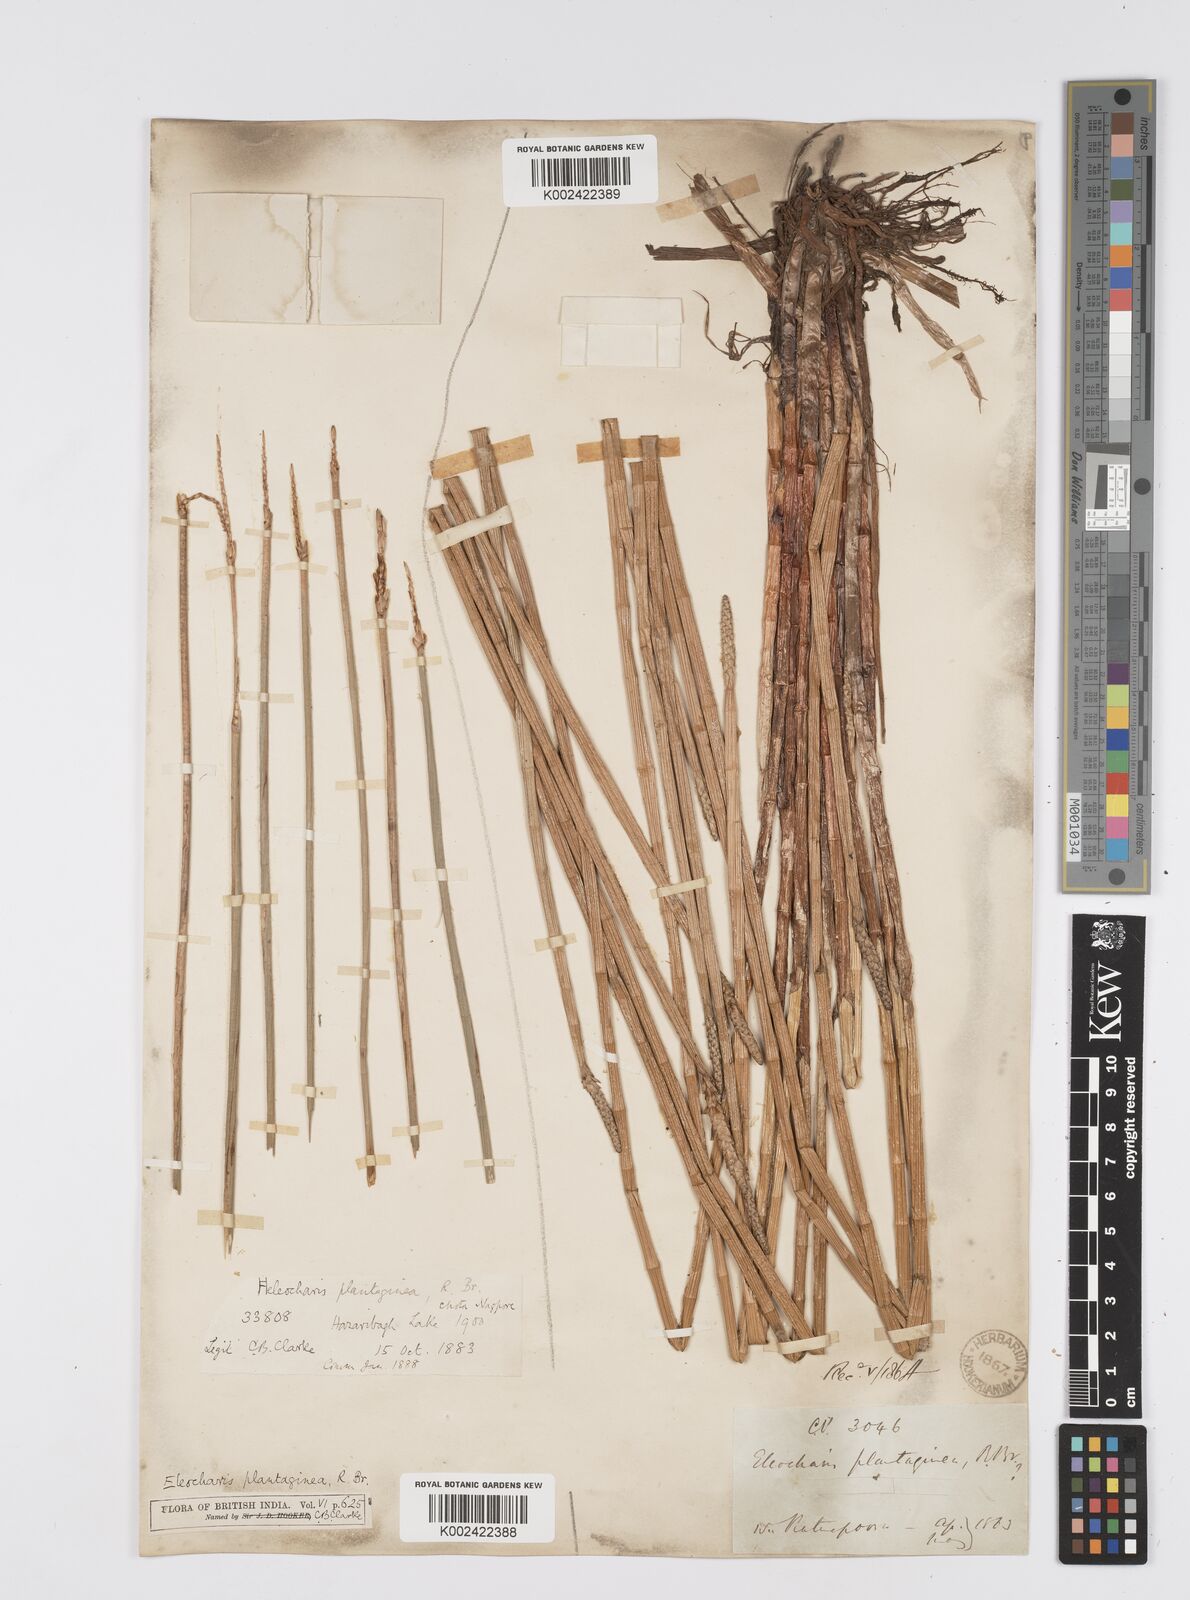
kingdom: Plantae
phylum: Tracheophyta
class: Liliopsida
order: Poales
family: Cyperaceae
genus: Eleocharis
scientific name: Eleocharis dulcis
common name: Chinese water chestnut
